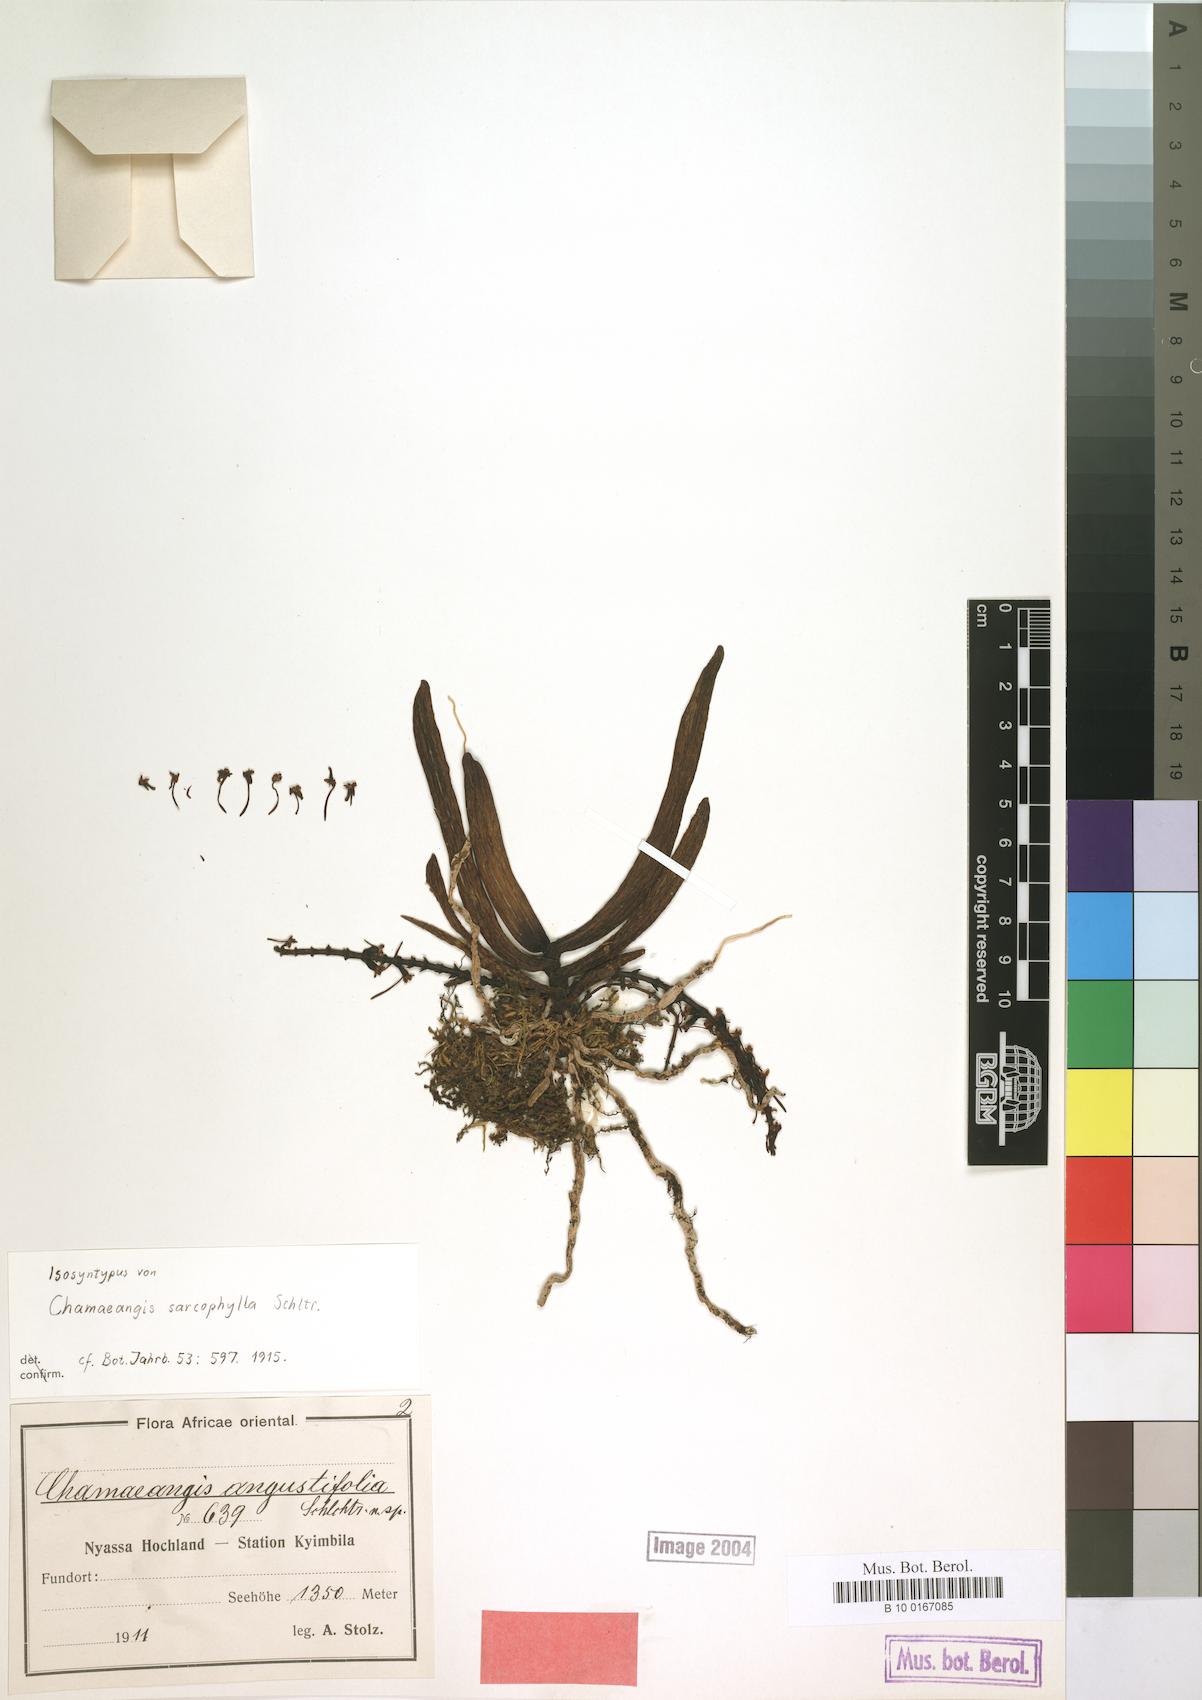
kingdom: Plantae
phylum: Tracheophyta
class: Liliopsida
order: Asparagales
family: Orchidaceae
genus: Diaphananthe
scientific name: Diaphananthe sarcophylla
